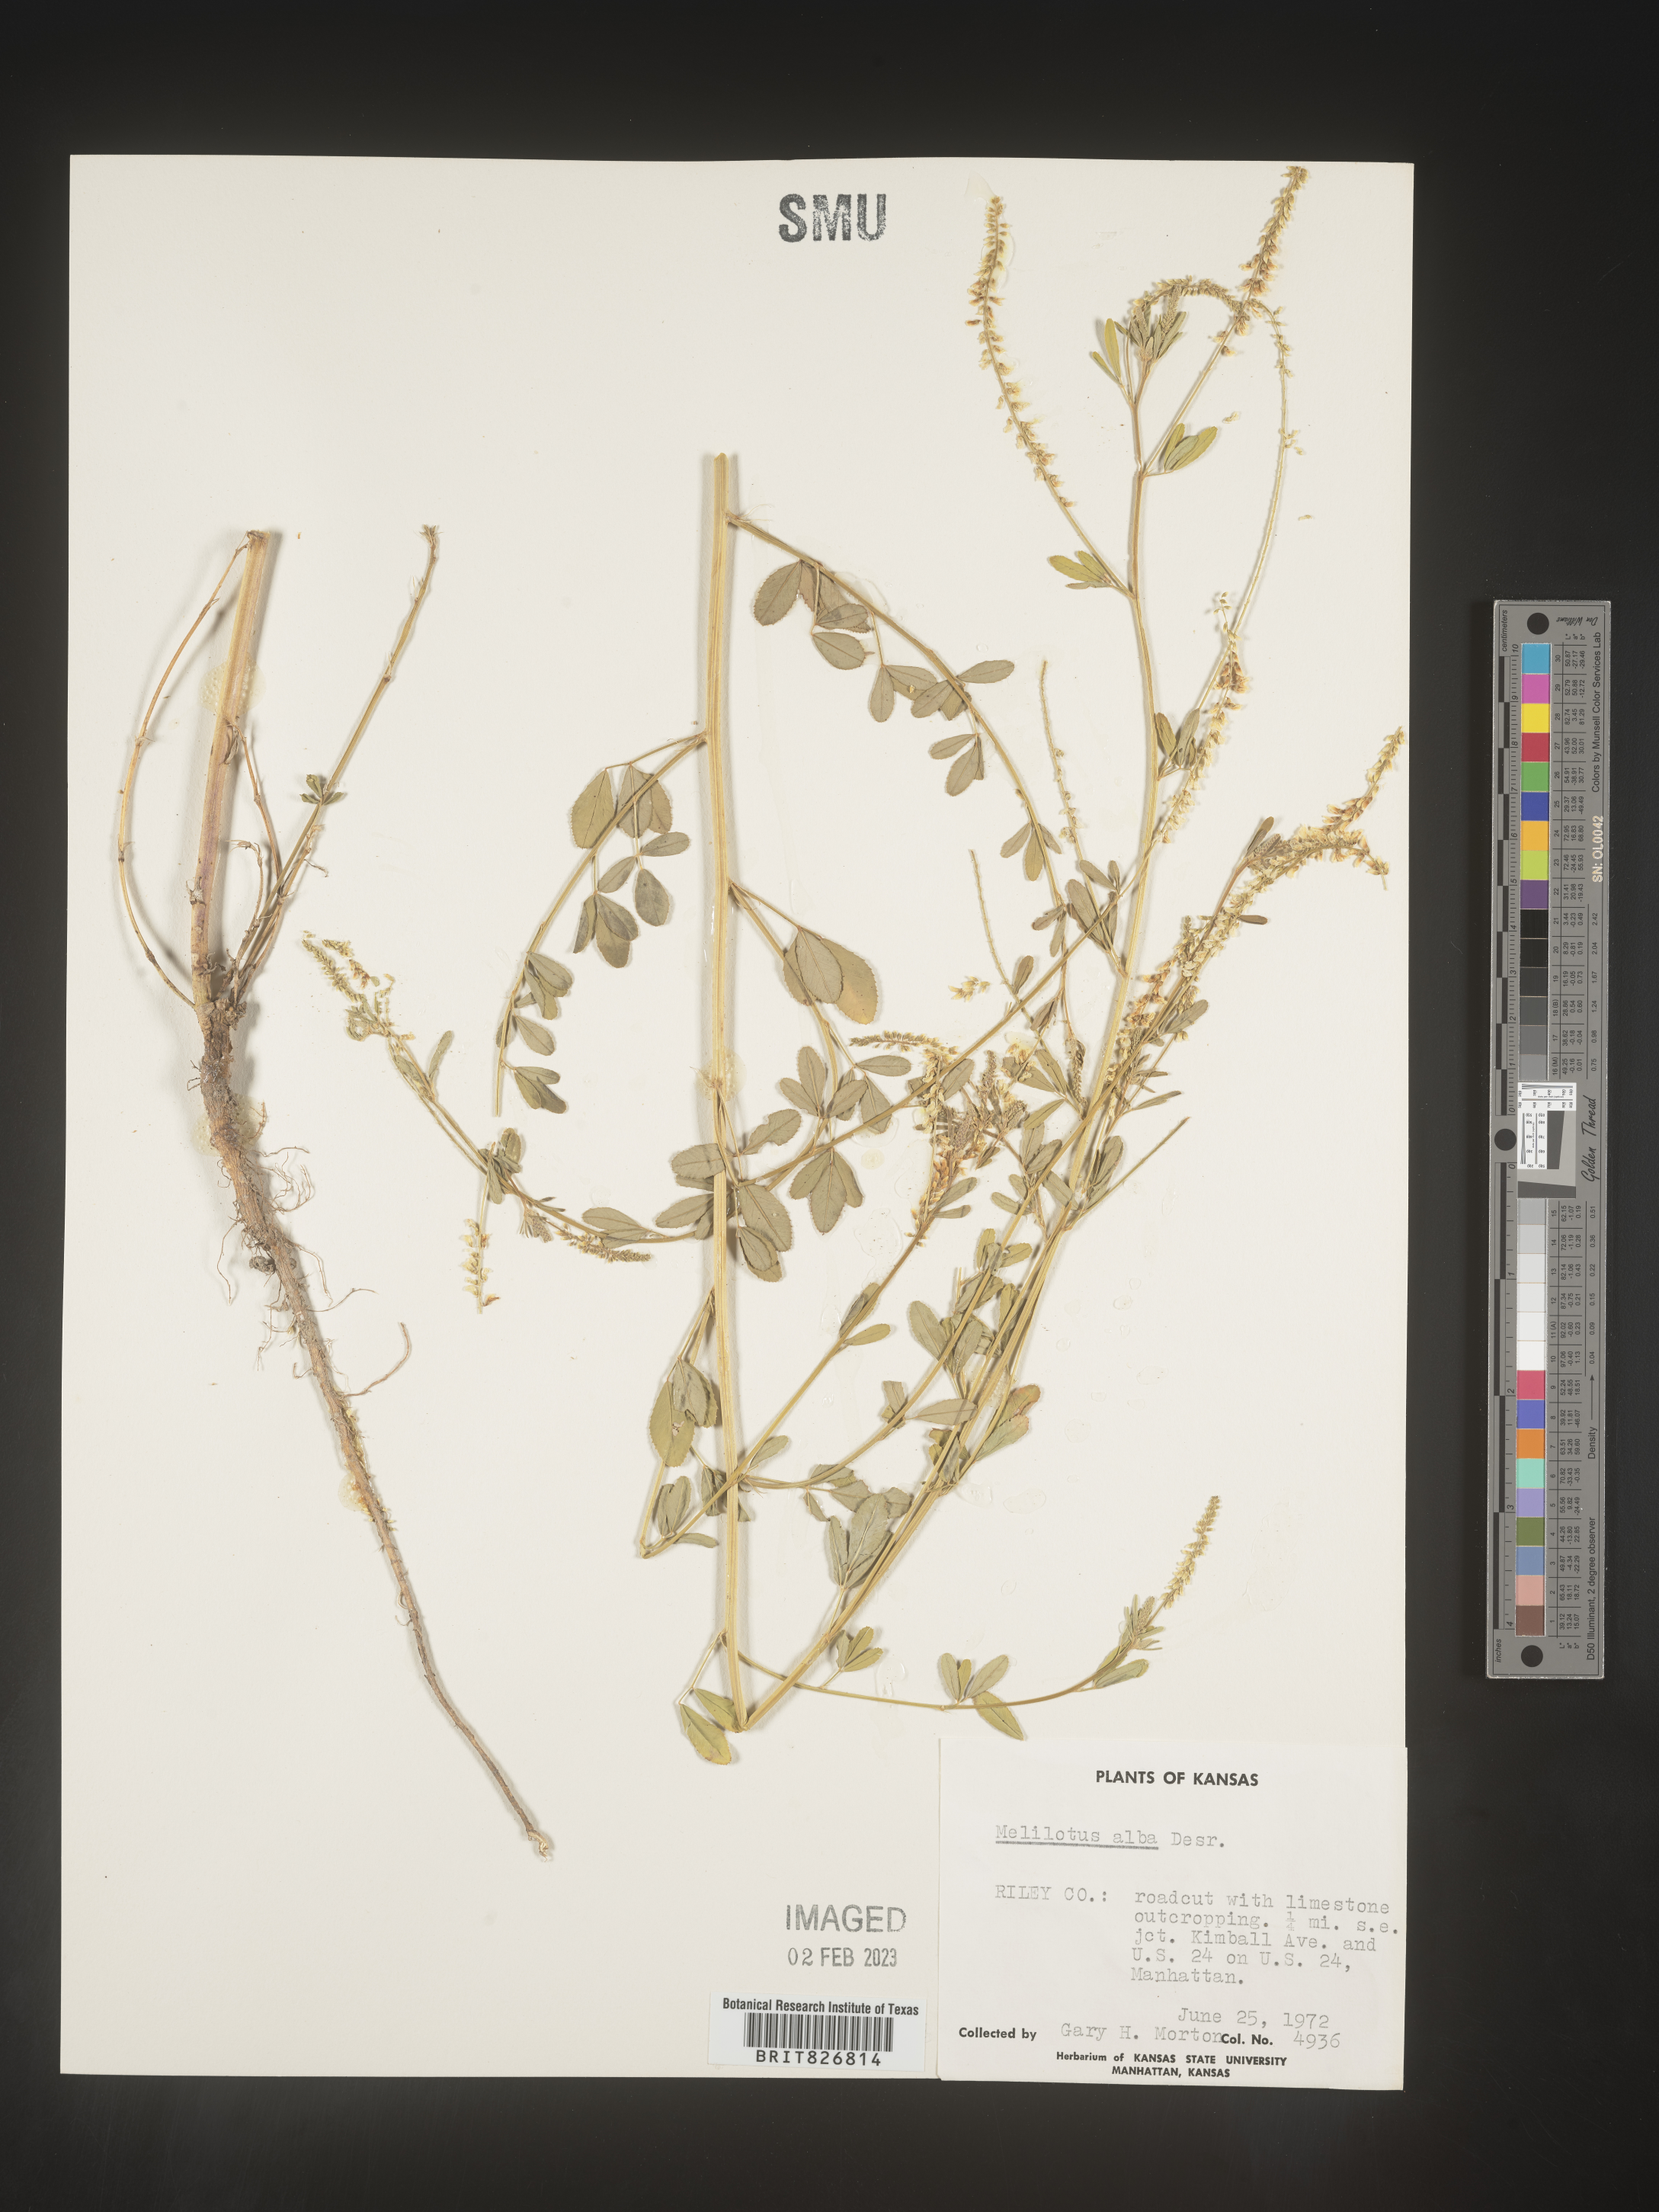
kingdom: Plantae
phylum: Tracheophyta
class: Magnoliopsida
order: Fabales
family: Fabaceae
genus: Melilotus
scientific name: Melilotus albus
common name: White melilot
